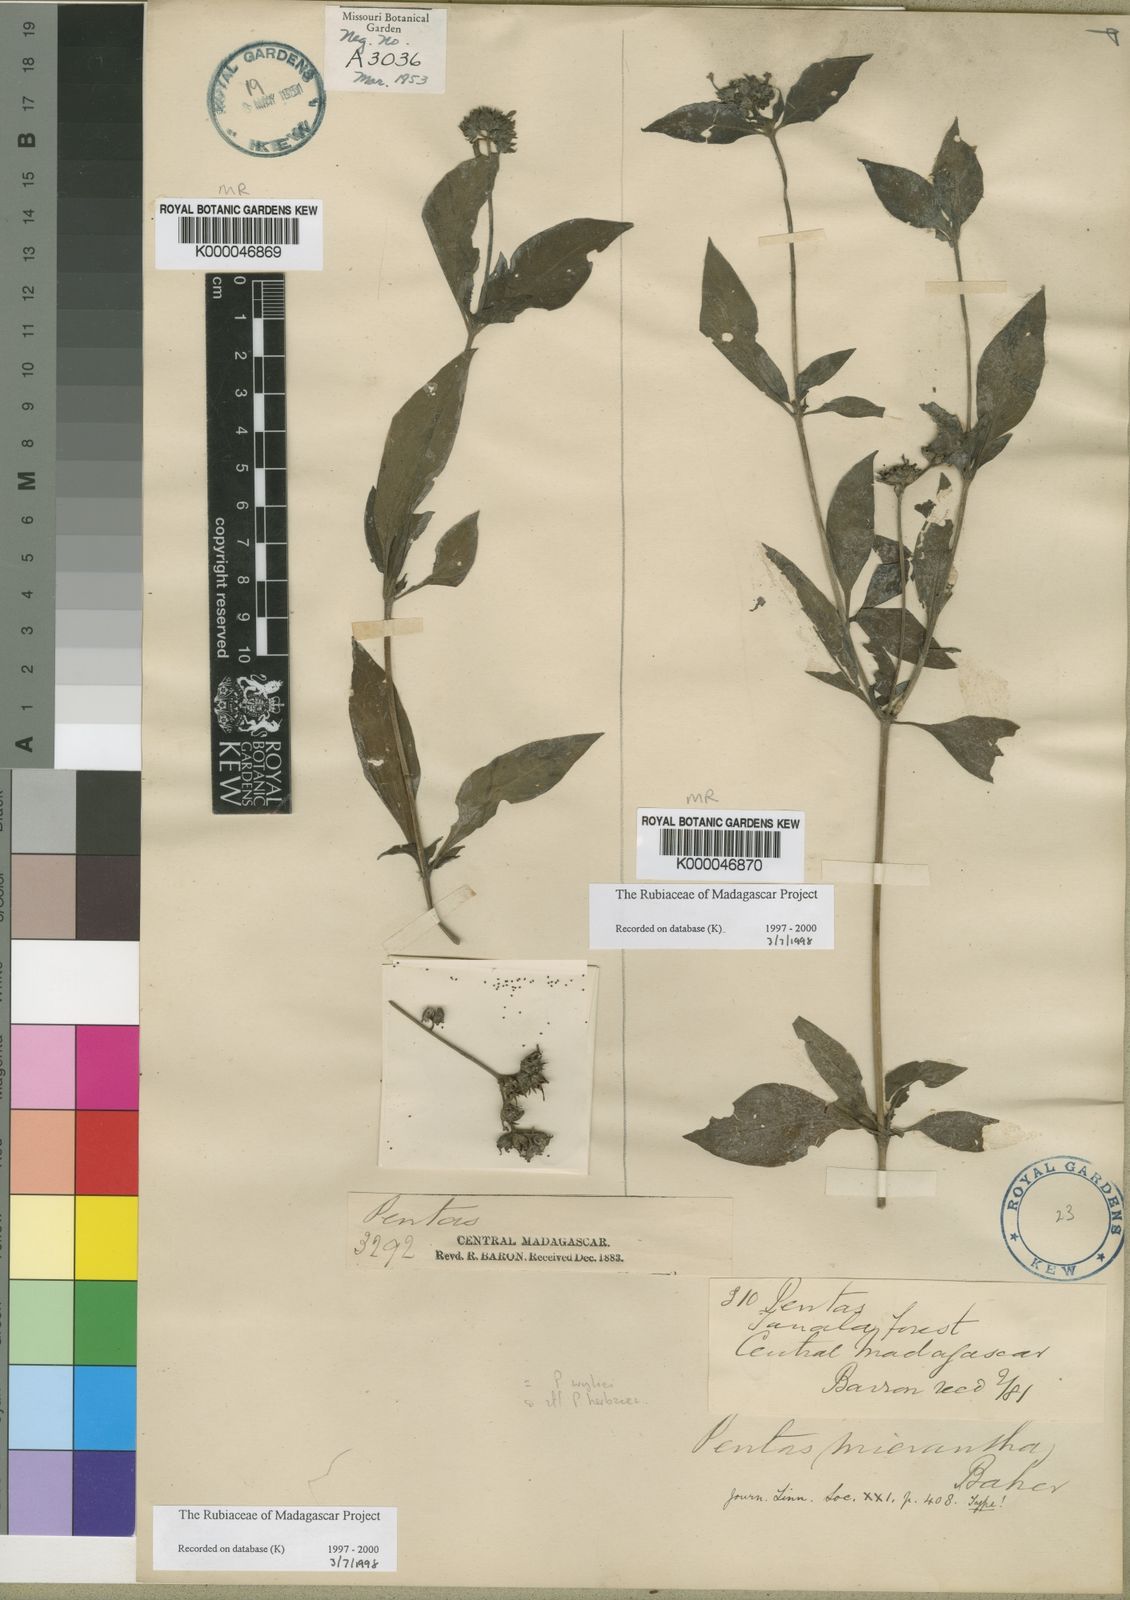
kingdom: Plantae
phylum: Tracheophyta
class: Magnoliopsida
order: Gentianales
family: Rubiaceae
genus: Pentas
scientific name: Pentas micrantha
